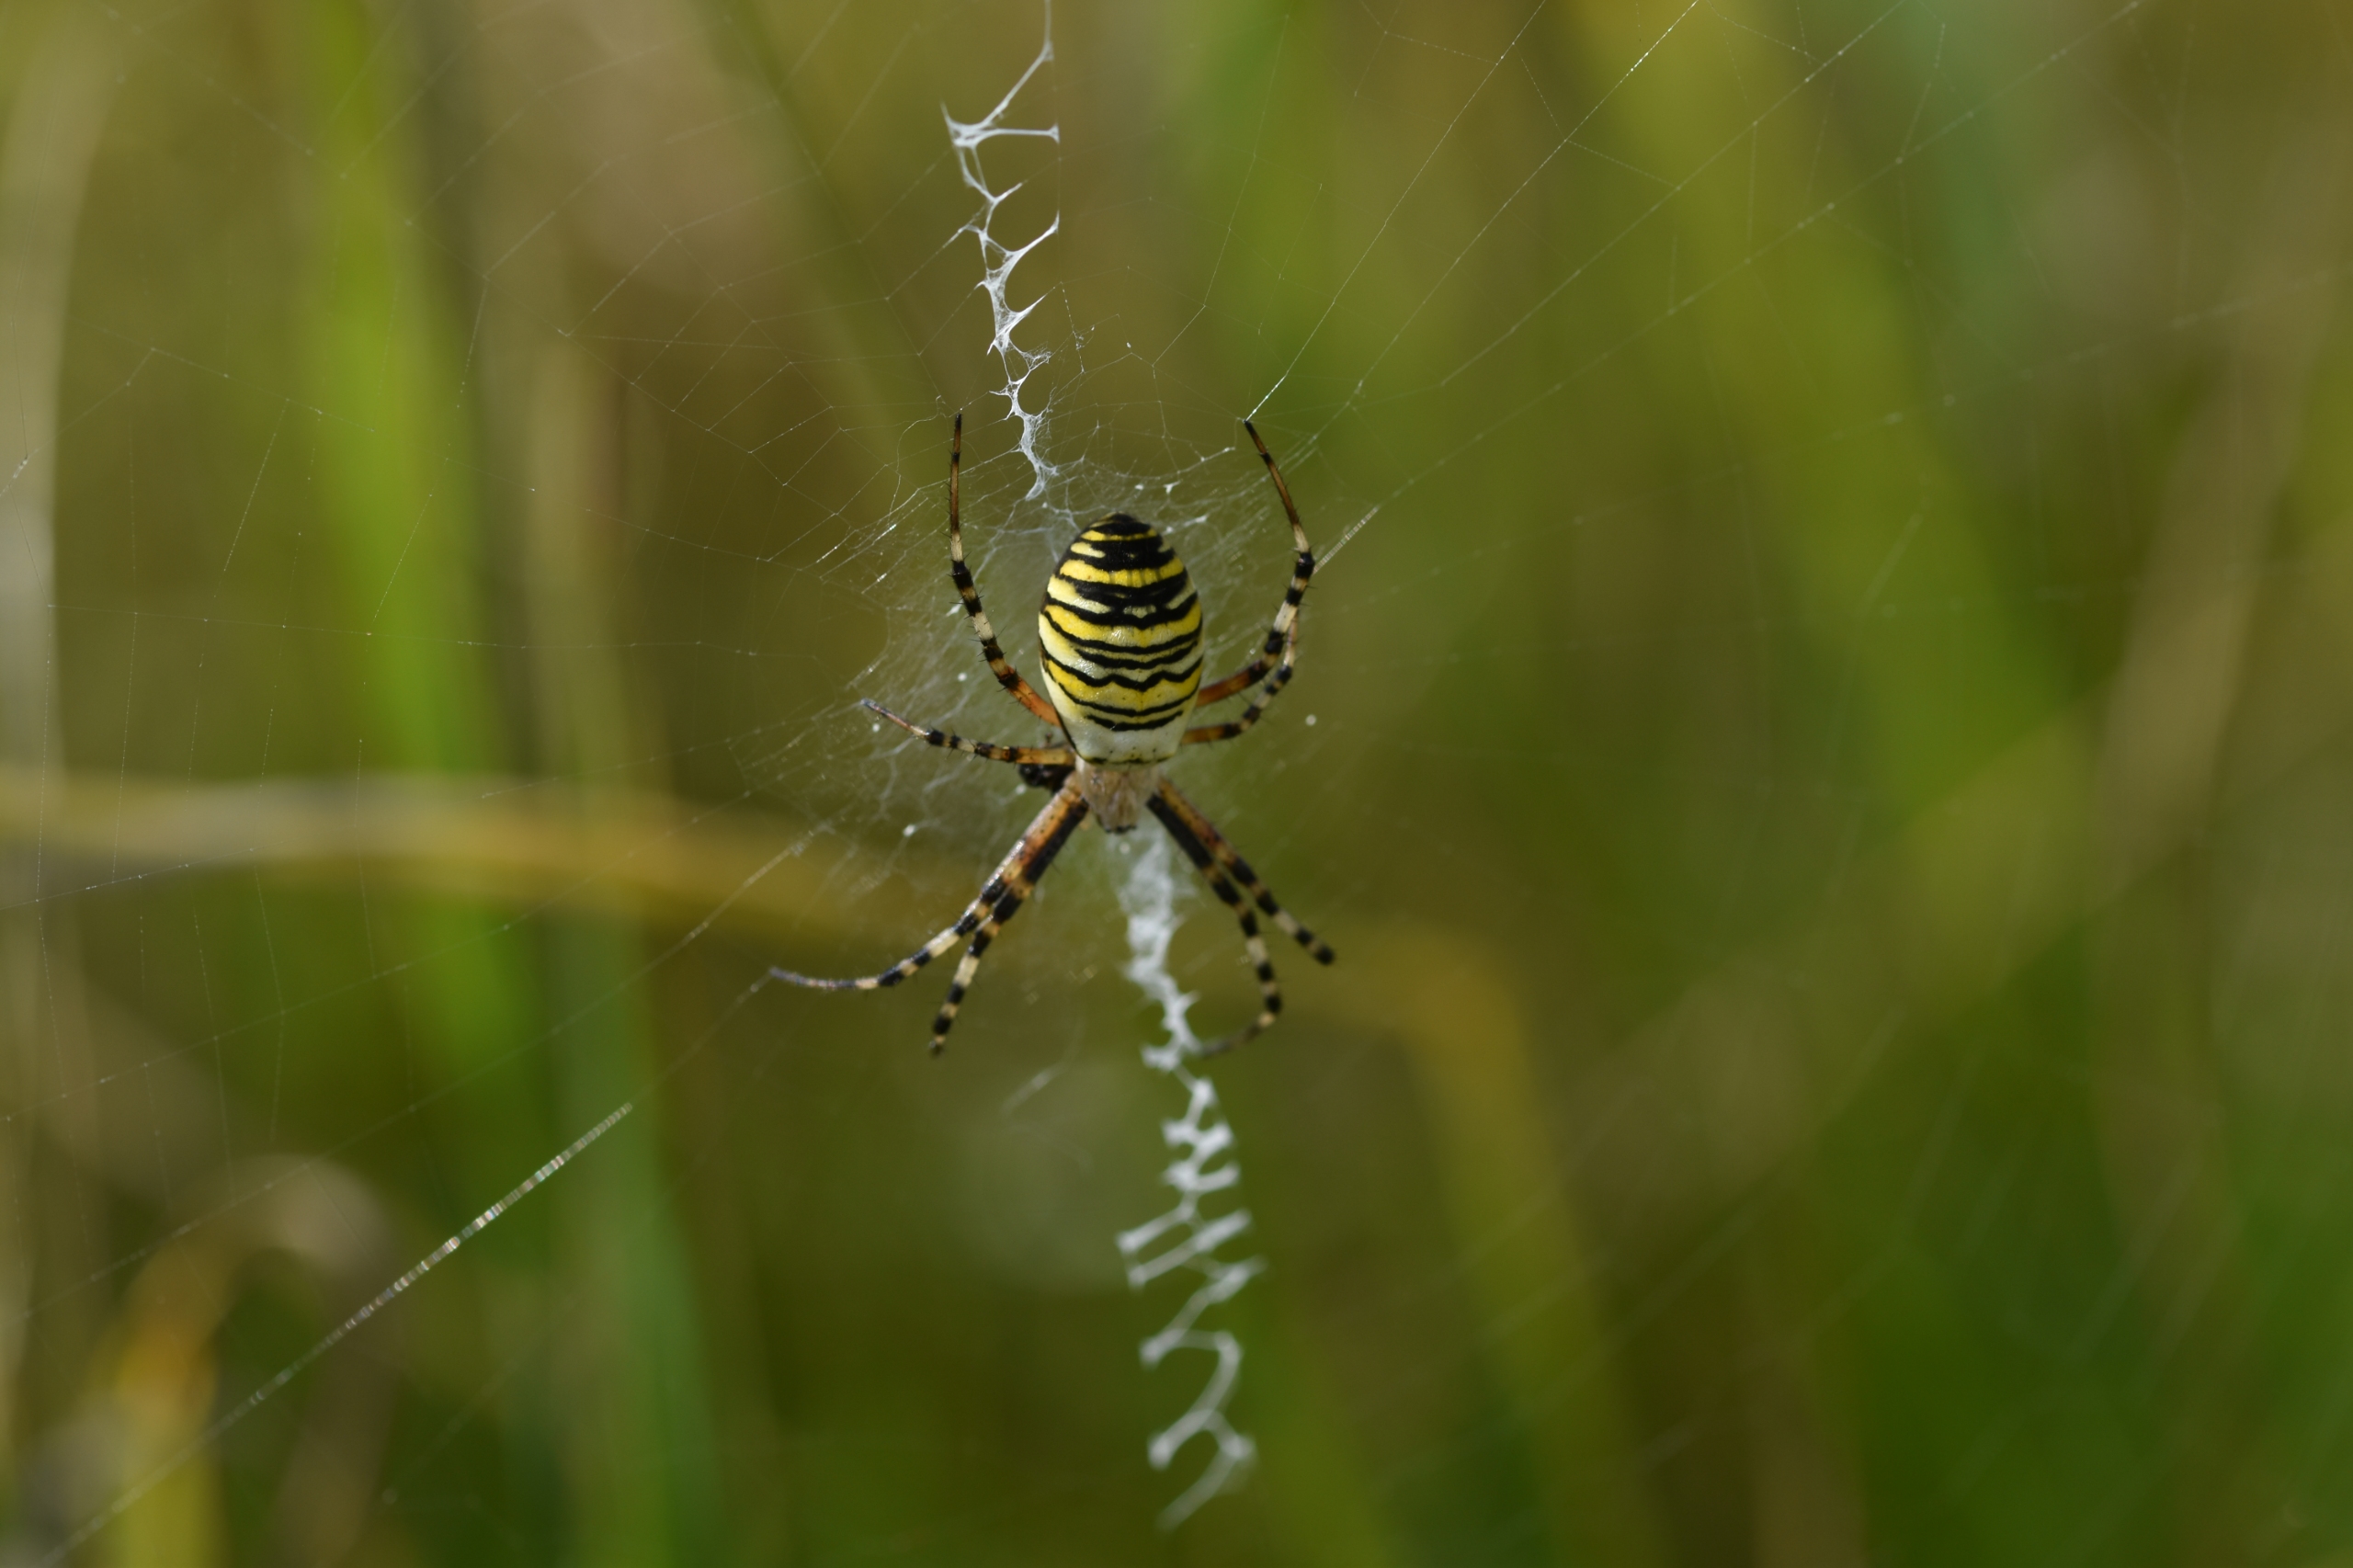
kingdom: Animalia
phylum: Arthropoda
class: Arachnida
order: Araneae
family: Araneidae
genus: Argiope
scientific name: Argiope bruennichi
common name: Hvepseedderkop
